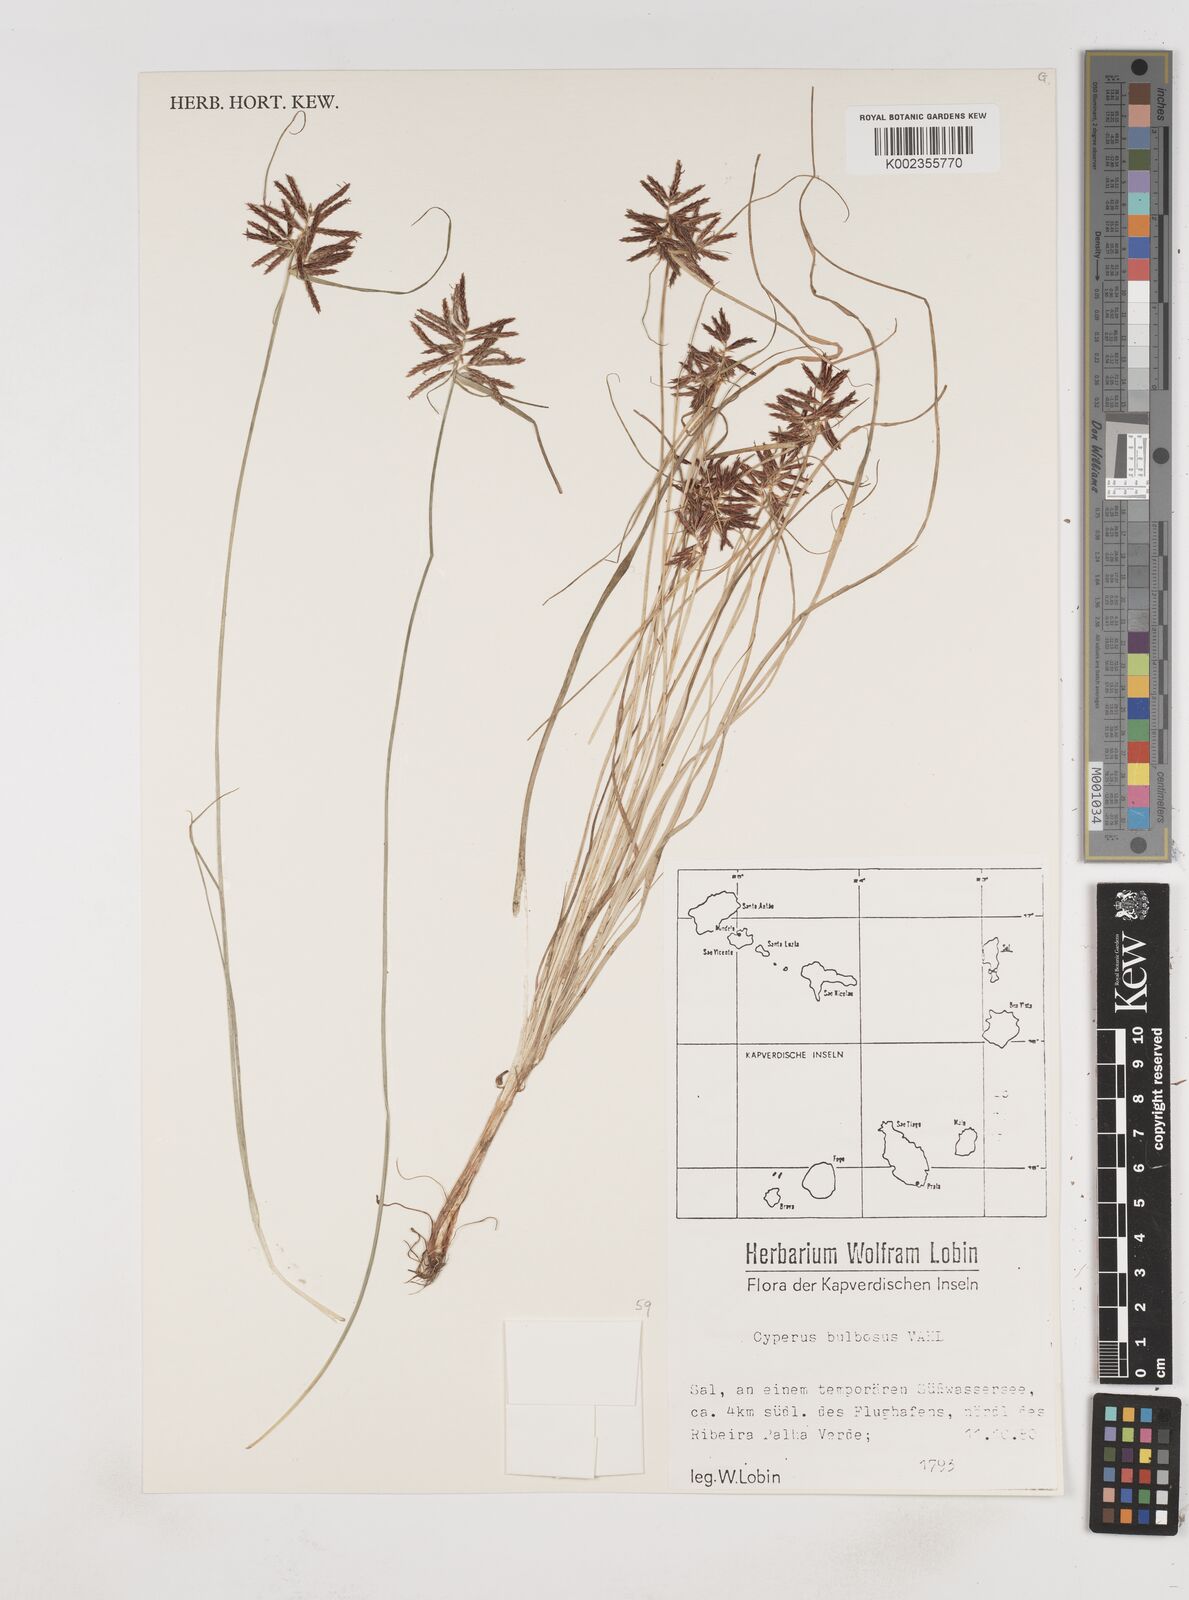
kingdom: Plantae
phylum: Tracheophyta
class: Liliopsida
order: Poales
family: Cyperaceae
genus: Cyperus
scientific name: Cyperus bulbosus
